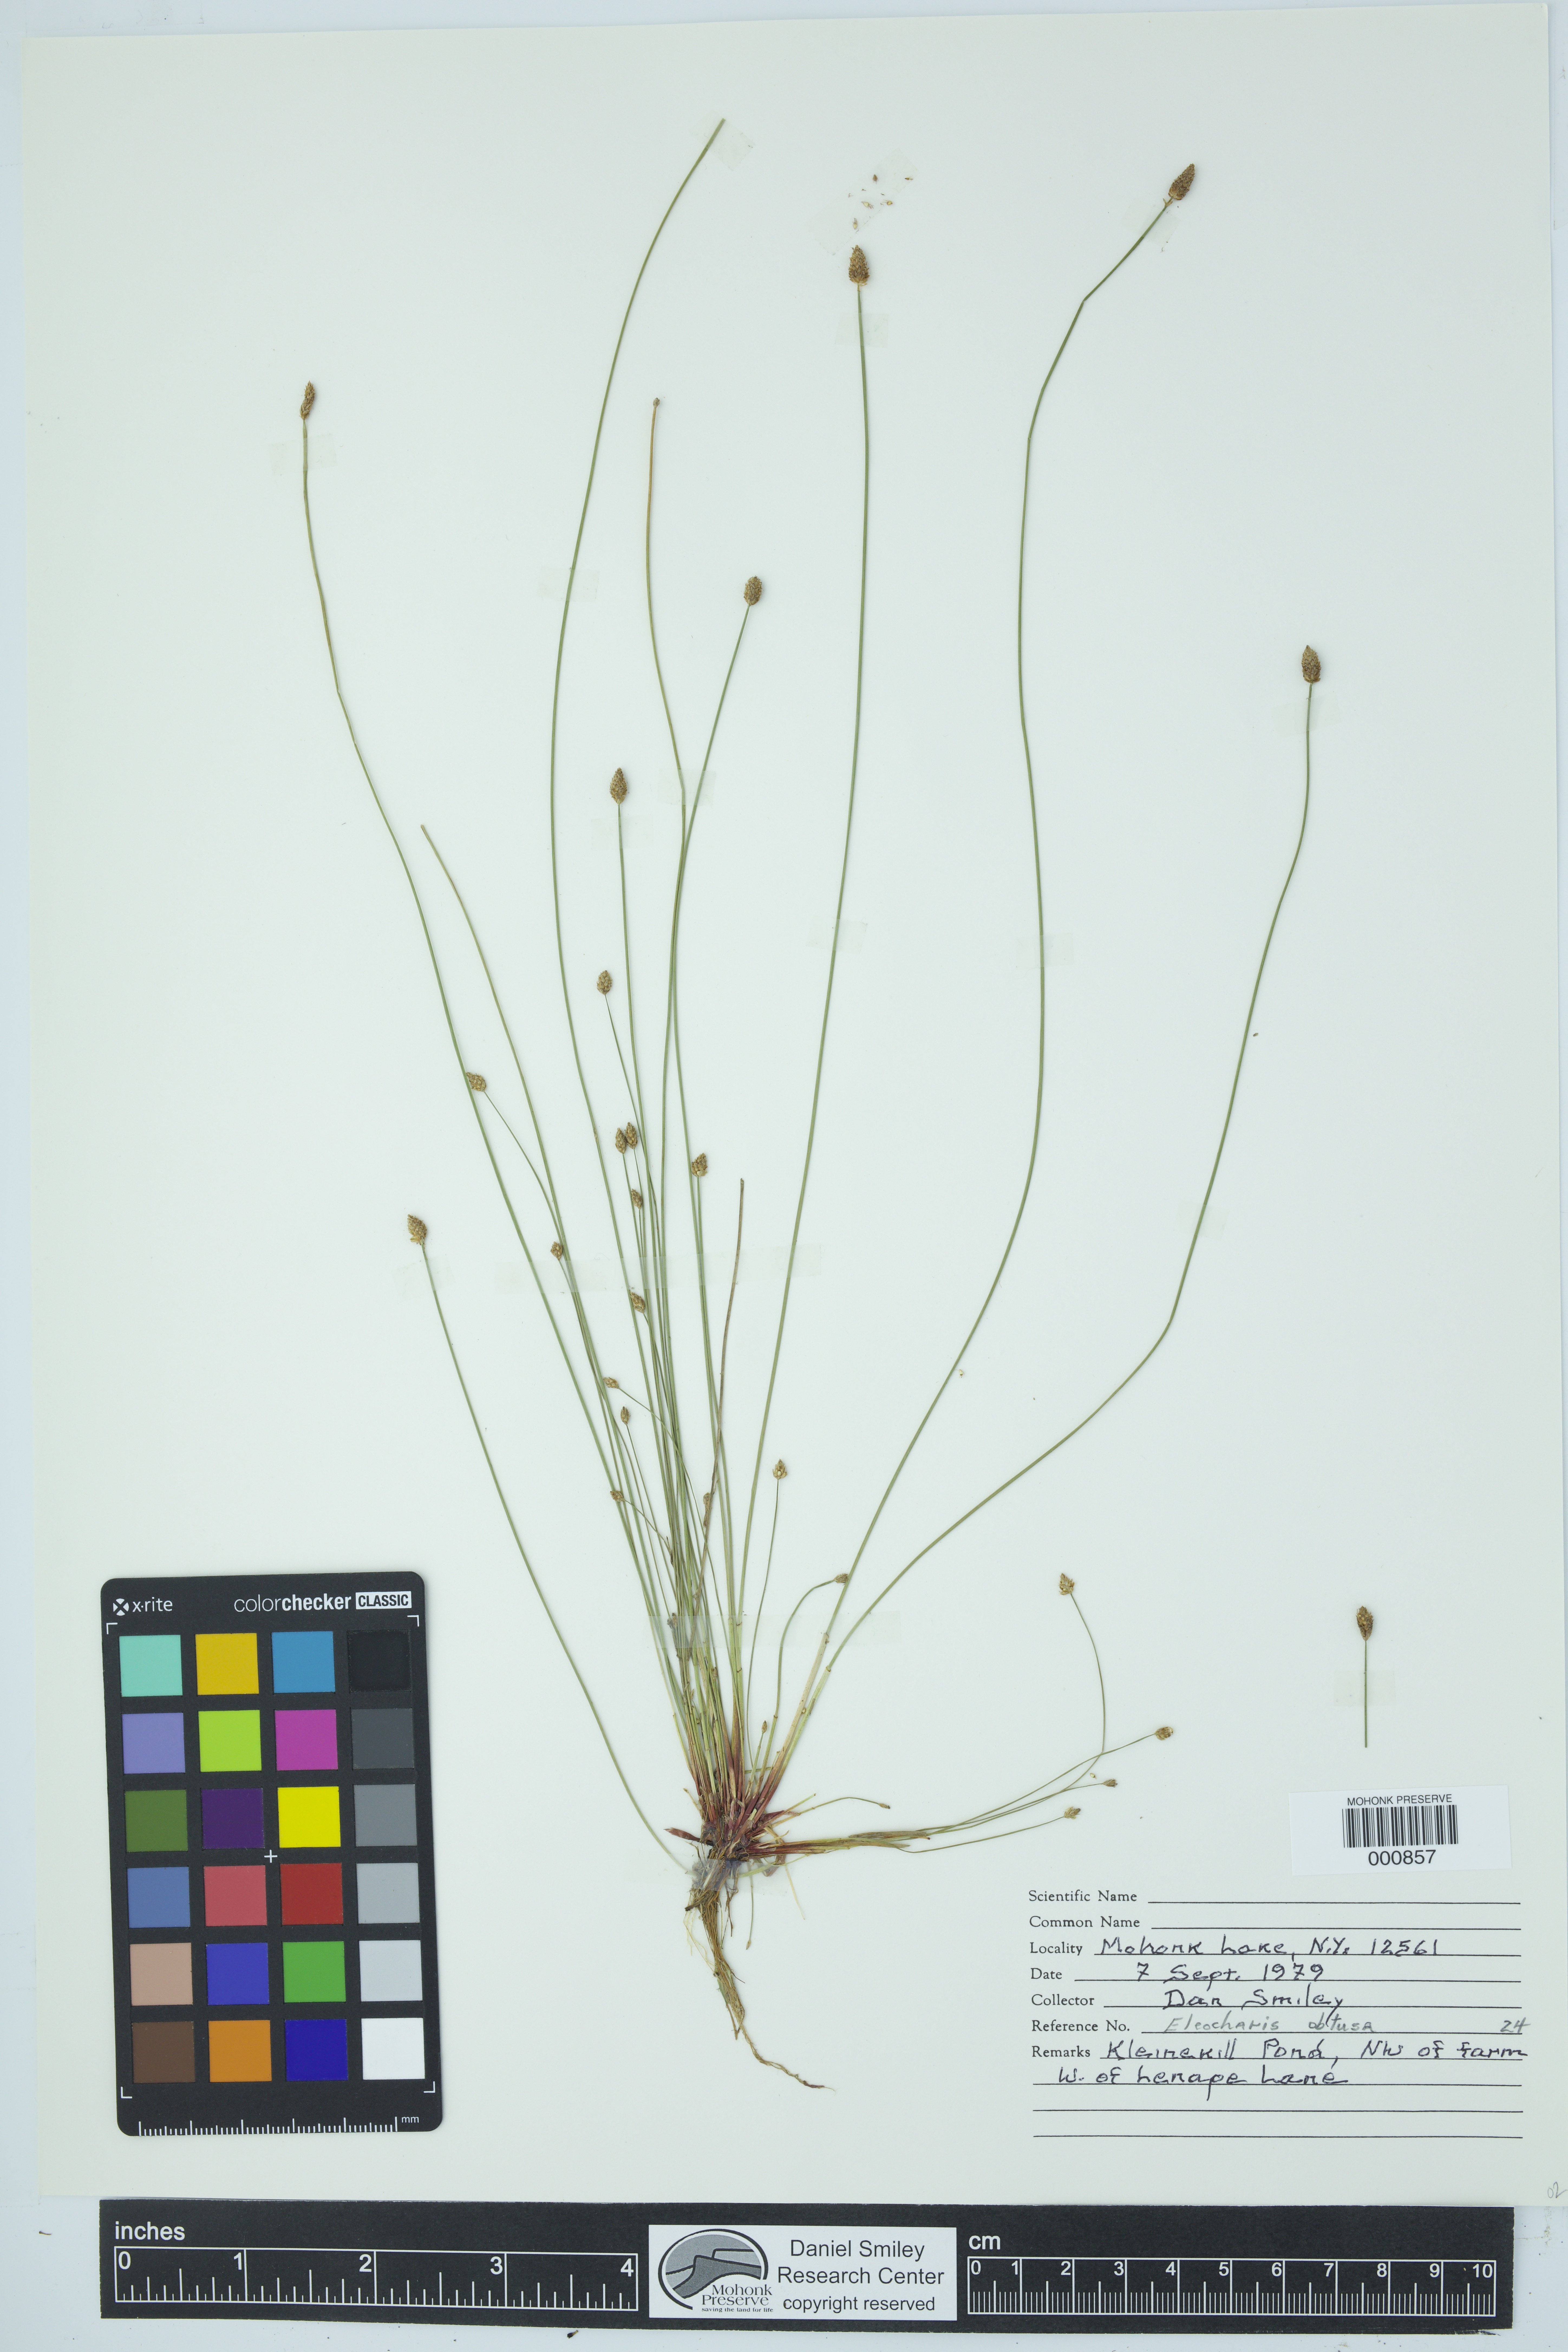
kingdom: Plantae
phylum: Tracheophyta
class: Liliopsida
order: Poales
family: Cyperaceae
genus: Eleocharis
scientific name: Eleocharis obtusa
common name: Blunt spikerush
